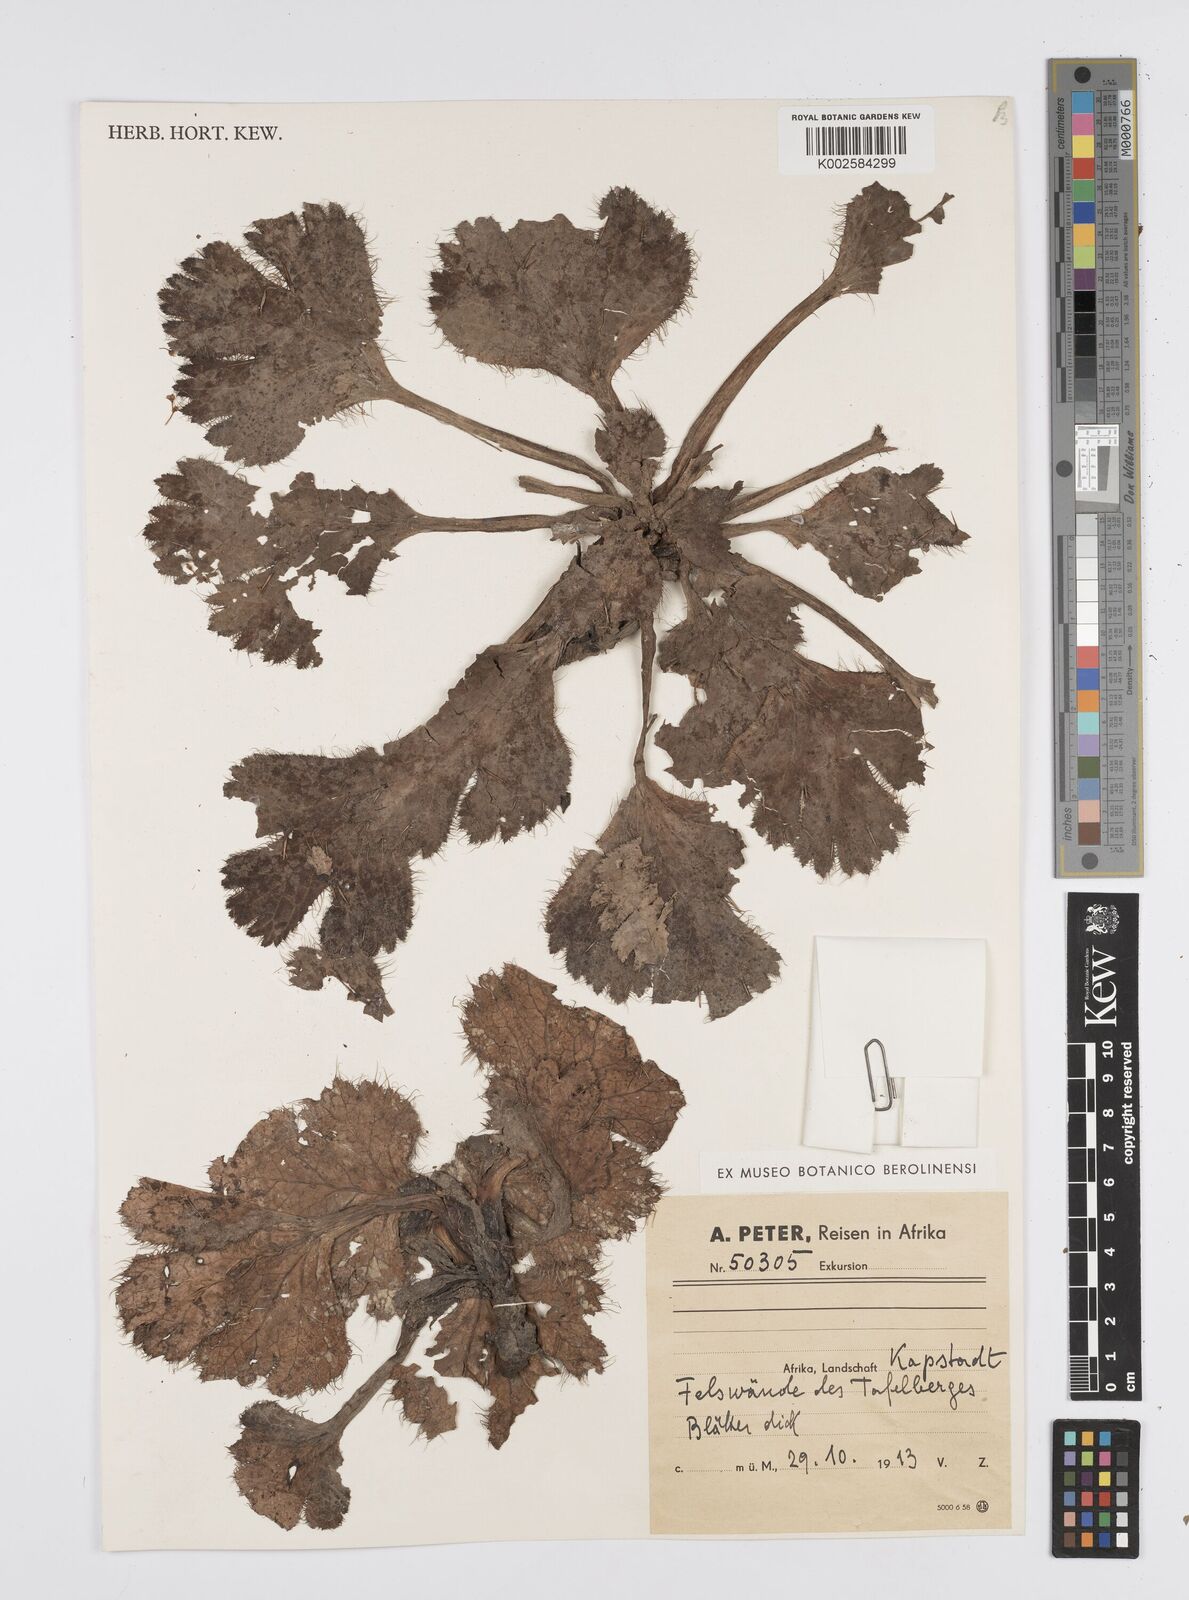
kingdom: Plantae
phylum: Tracheophyta
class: Magnoliopsida
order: Apiales
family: Apiaceae
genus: Arctopus
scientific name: Arctopus echinatus
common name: Platdoring
